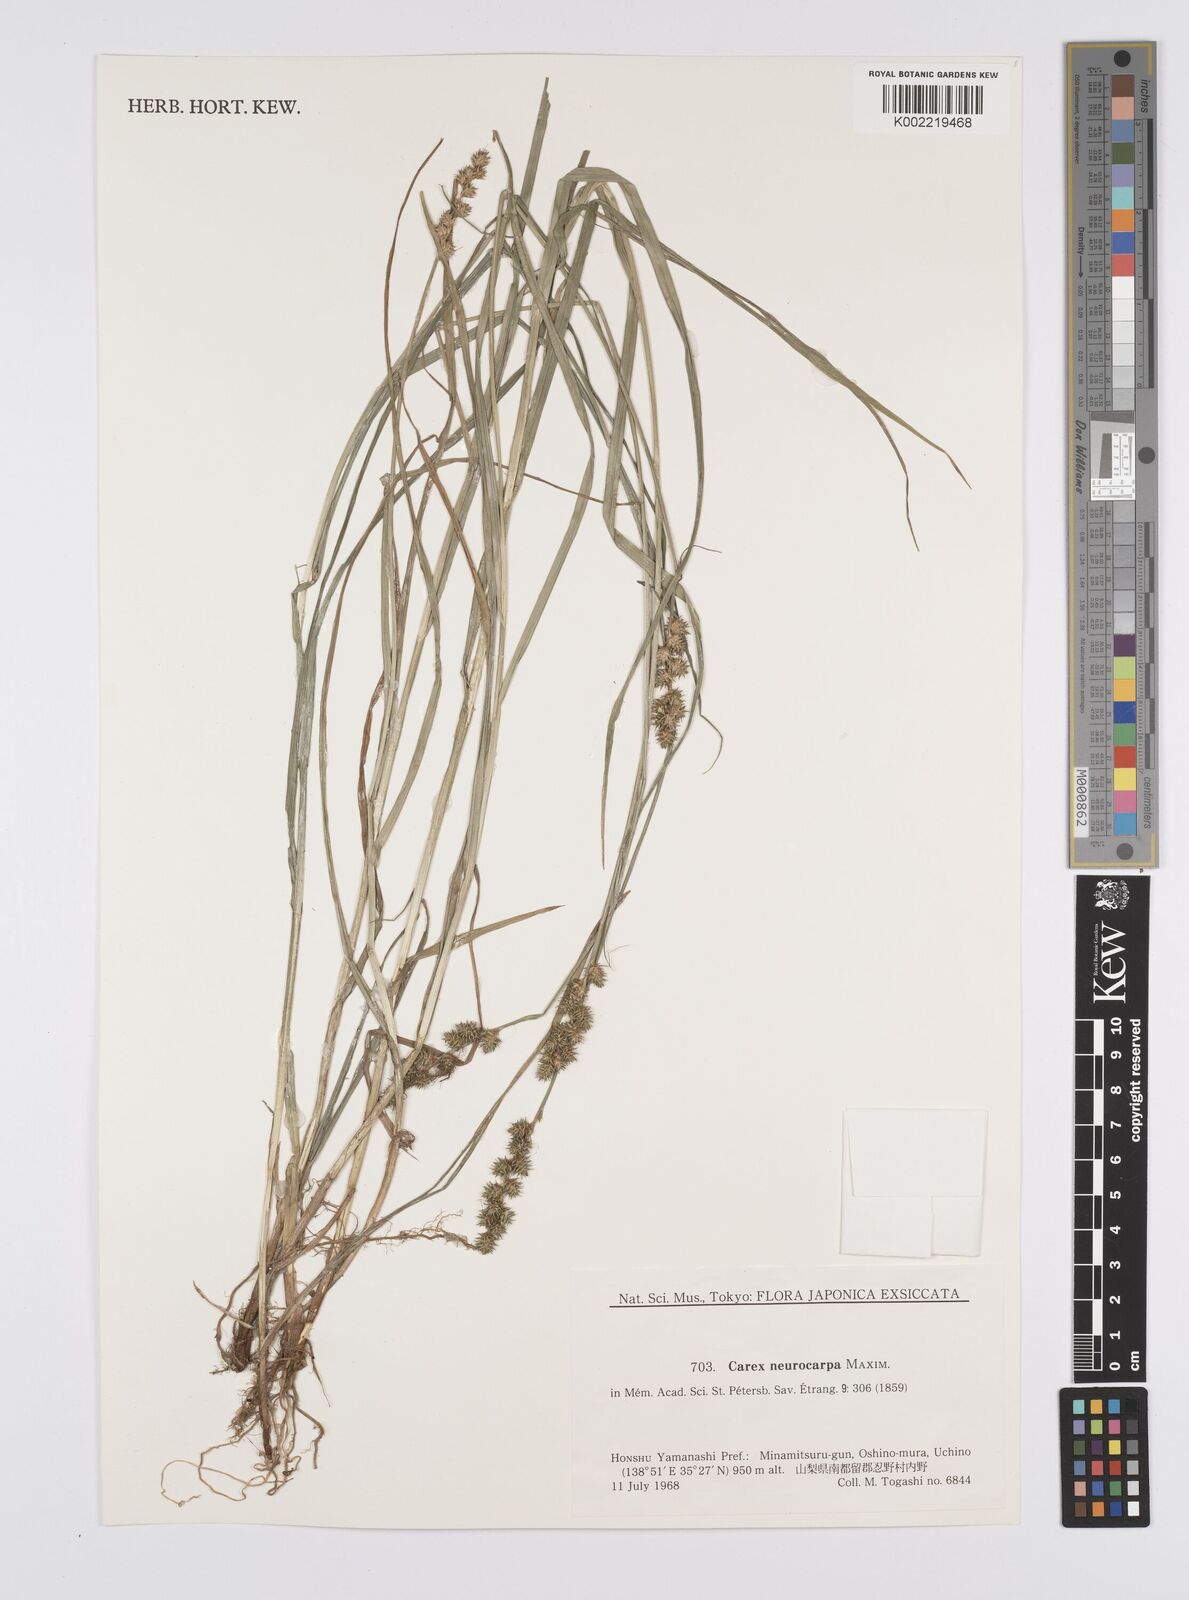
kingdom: Plantae
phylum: Tracheophyta
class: Liliopsida
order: Poales
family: Cyperaceae
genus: Carex
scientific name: Carex neurocarpa
